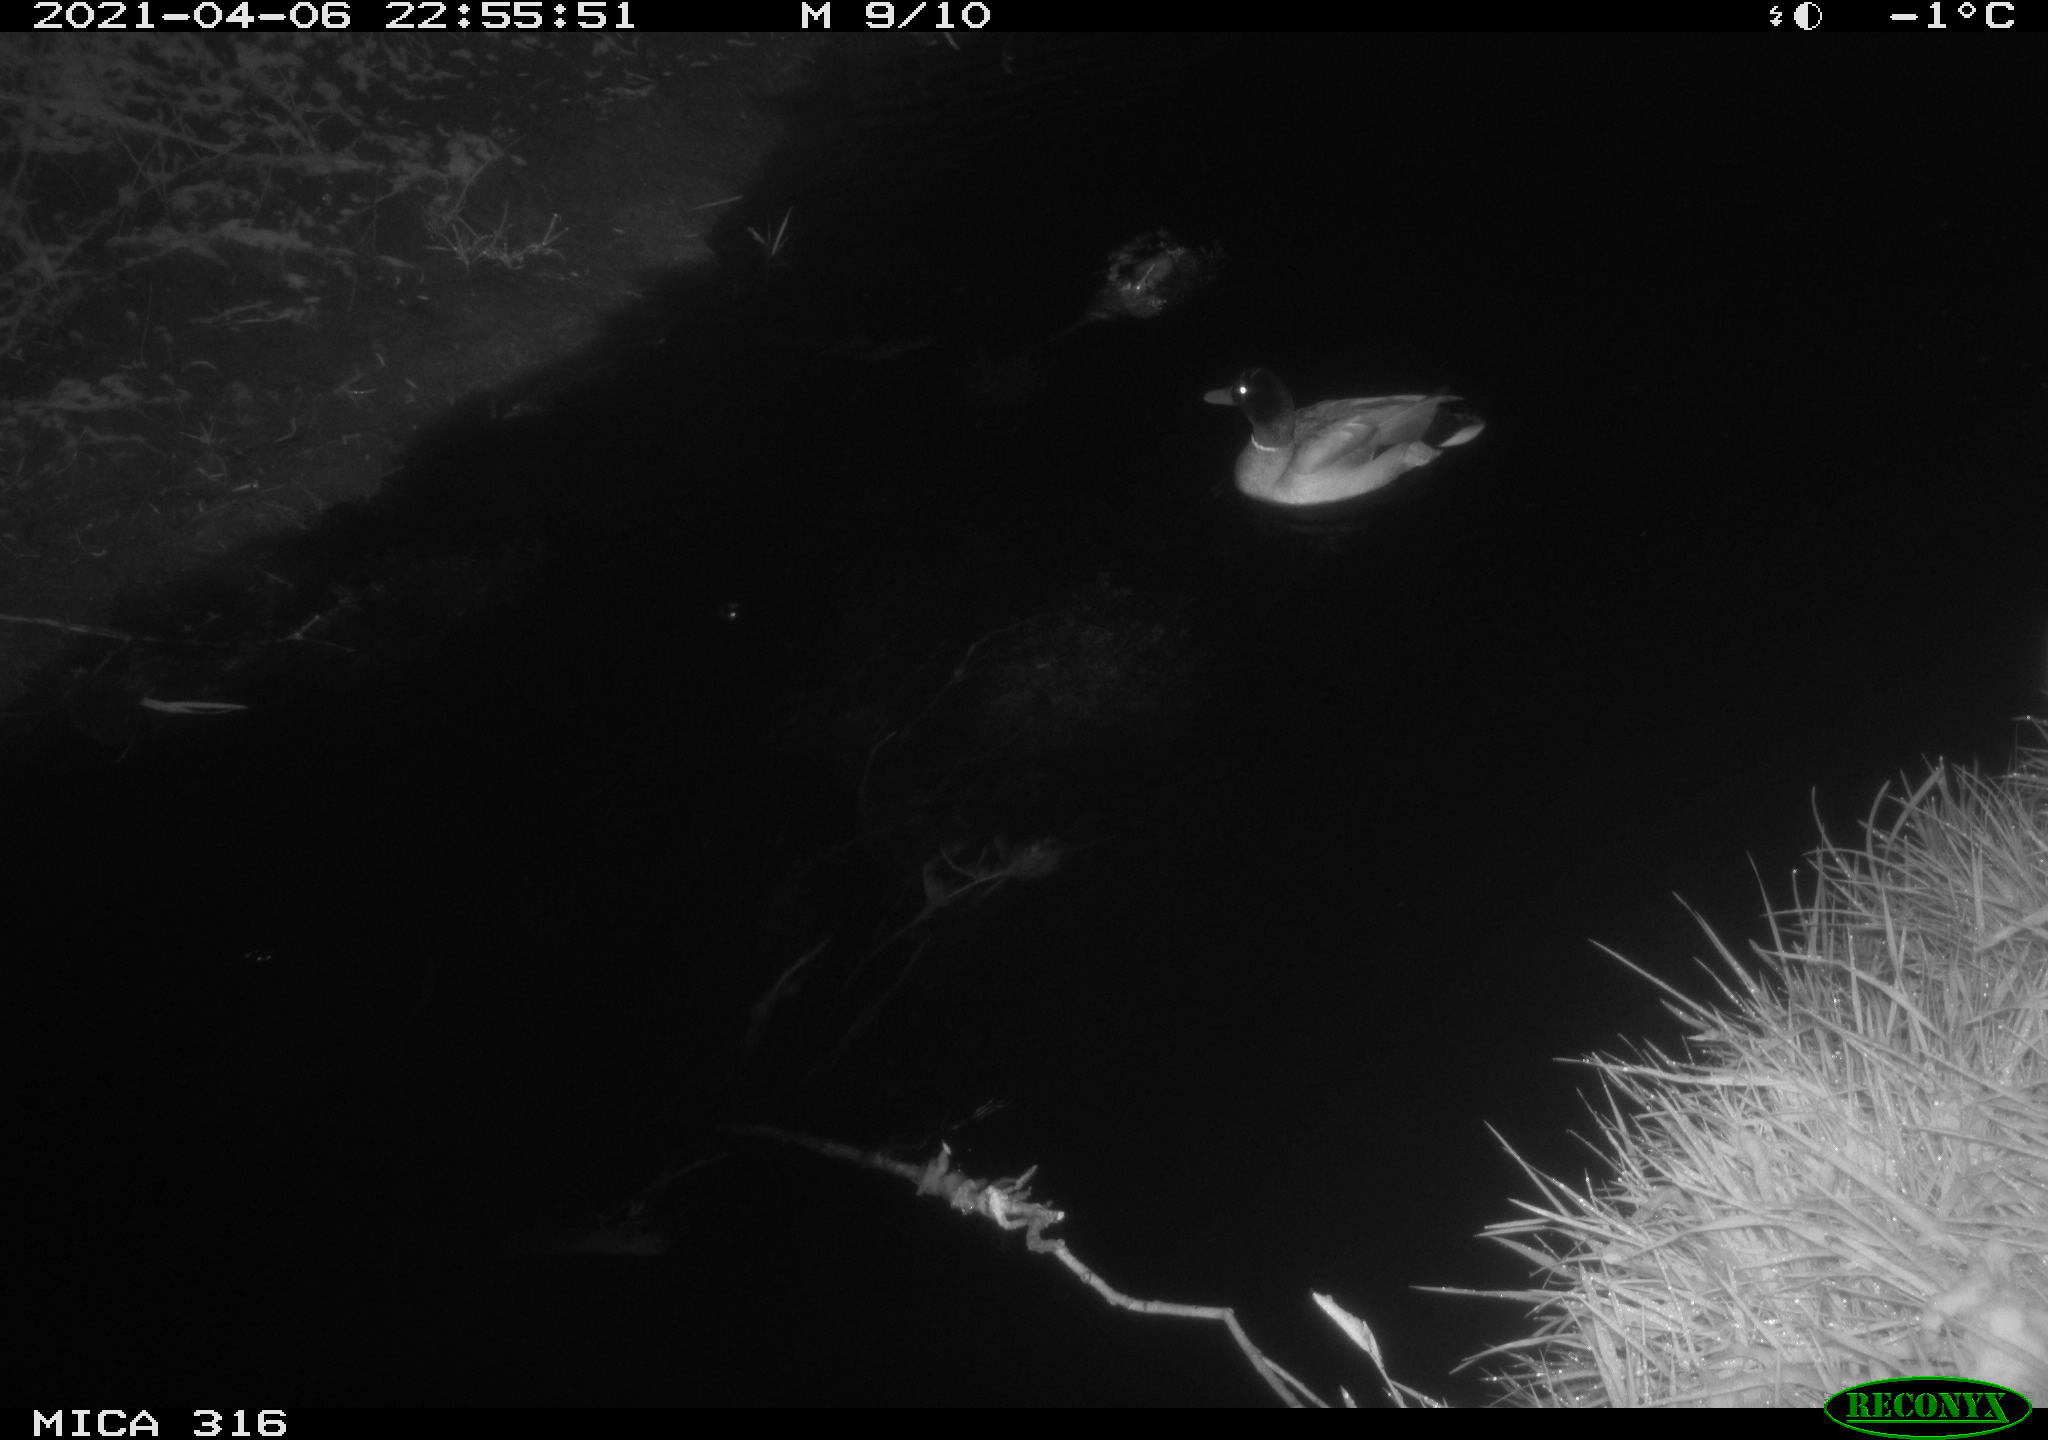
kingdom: Animalia
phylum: Chordata
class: Aves
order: Anseriformes
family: Anatidae
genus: Anas
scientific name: Anas platyrhynchos
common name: Mallard
